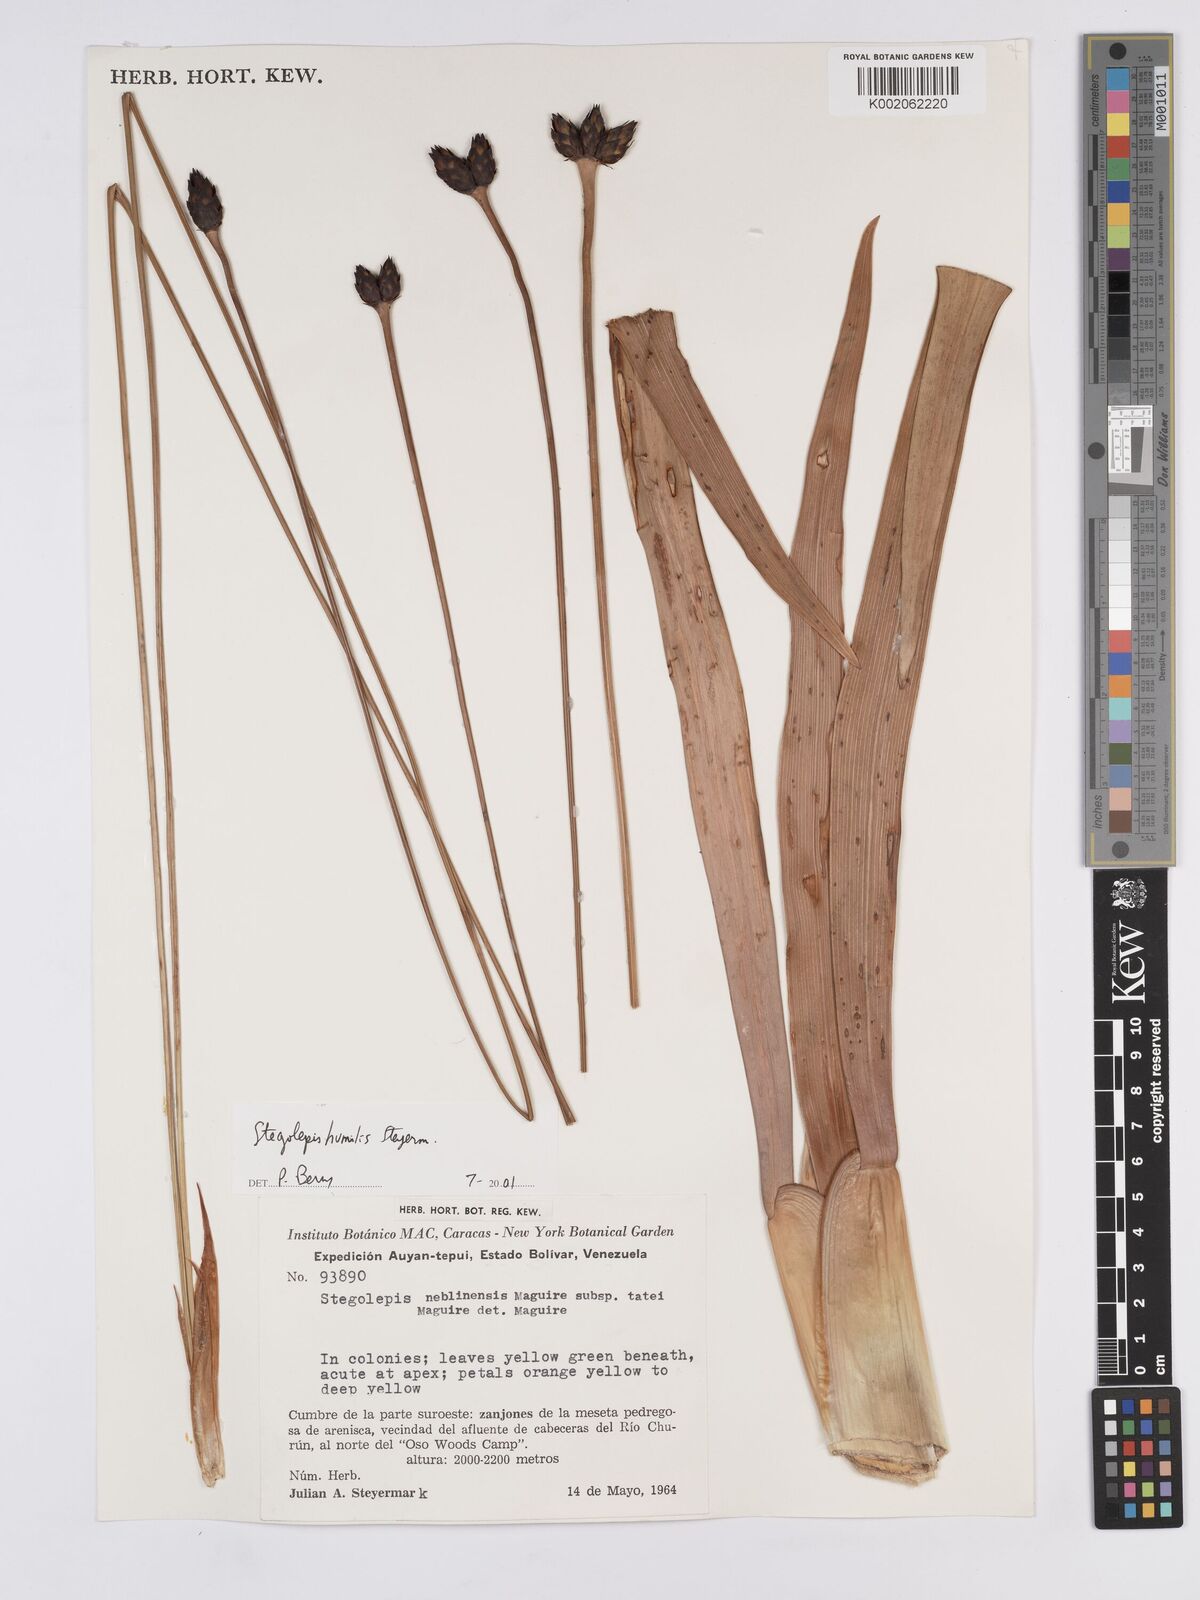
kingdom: Plantae
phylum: Tracheophyta
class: Liliopsida
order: Poales
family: Rapateaceae
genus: Stegolepis
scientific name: Stegolepis humilis
